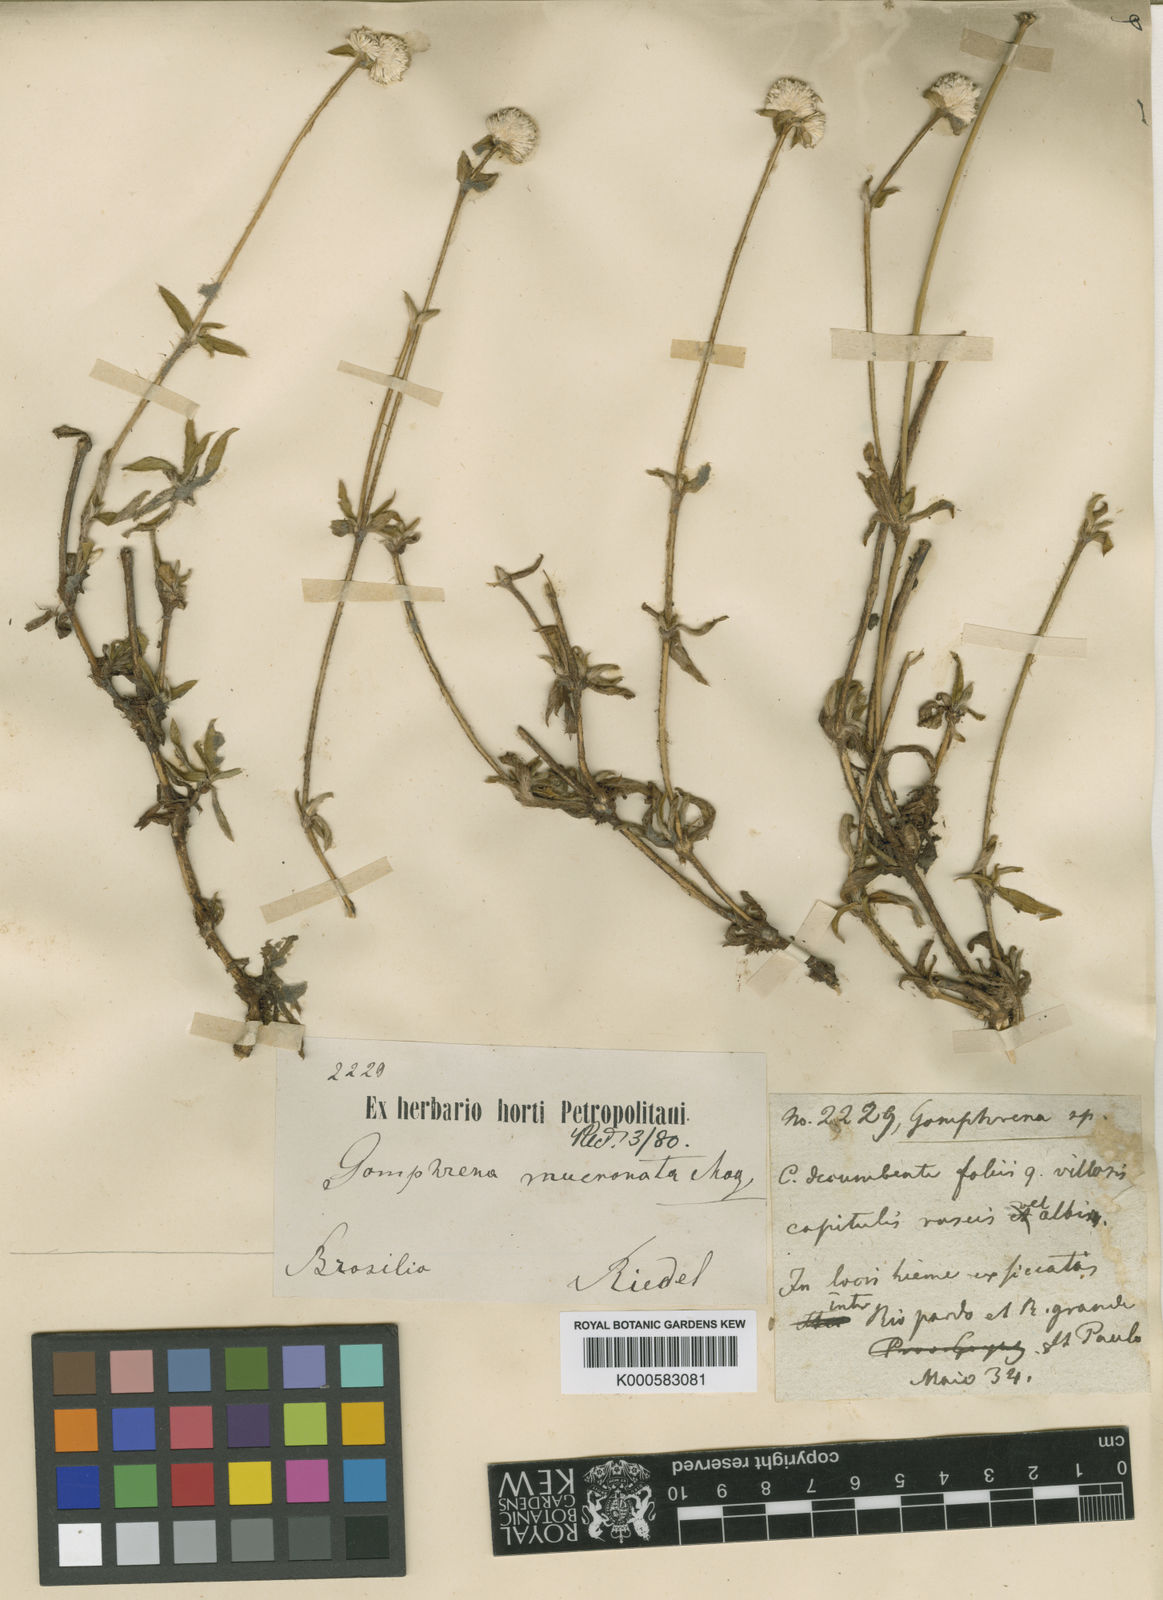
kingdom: Plantae
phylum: Tracheophyta
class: Magnoliopsida
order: Caryophyllales
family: Amaranthaceae
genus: Gomphrena
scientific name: Gomphrena
